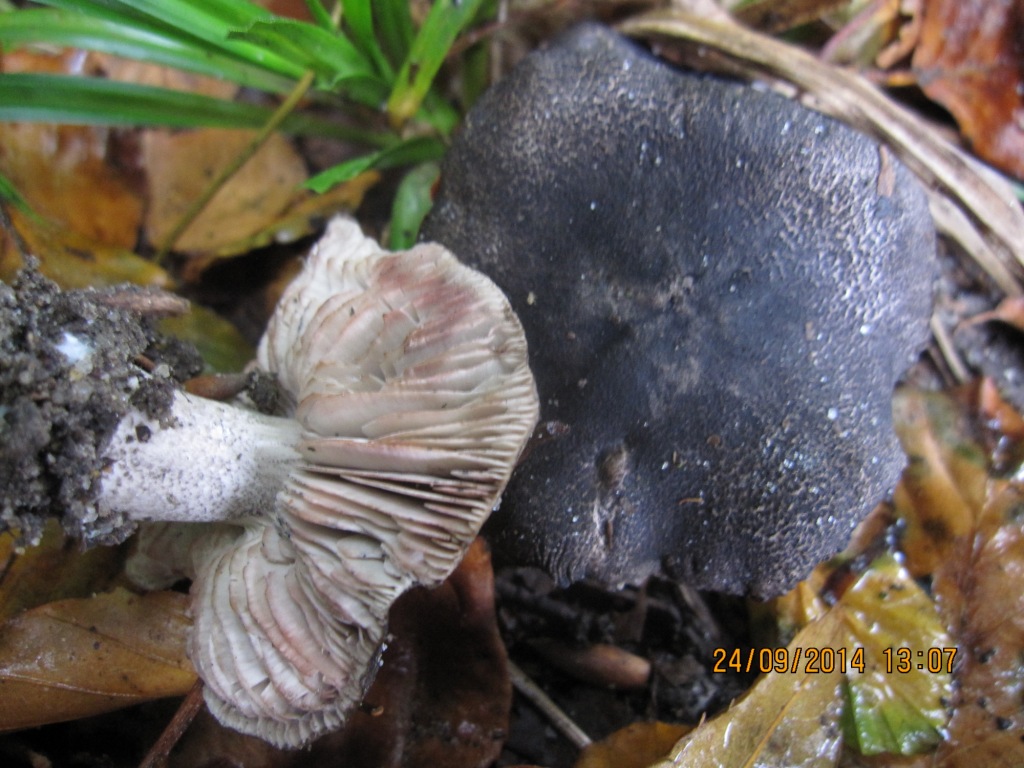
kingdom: Fungi
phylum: Basidiomycota
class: Agaricomycetes
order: Agaricales
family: Tricholomataceae
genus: Tricholoma
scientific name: Tricholoma orirubens
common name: rødbladet ridderhat
